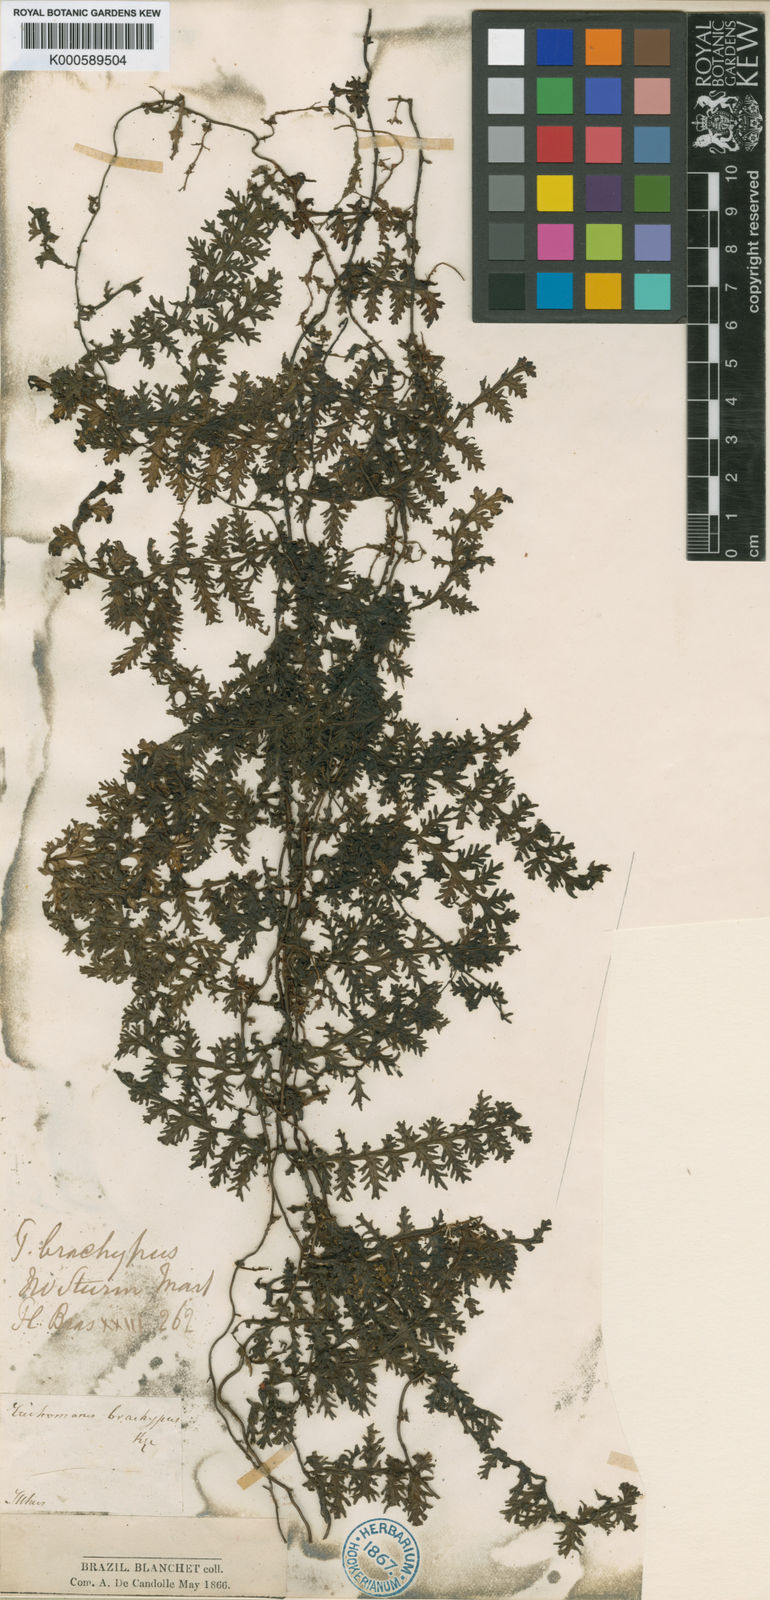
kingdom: Plantae
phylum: Tracheophyta
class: Polypodiopsida
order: Hymenophyllales
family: Hymenophyllaceae
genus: Trichomanes
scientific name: Trichomanes pedicellatum
